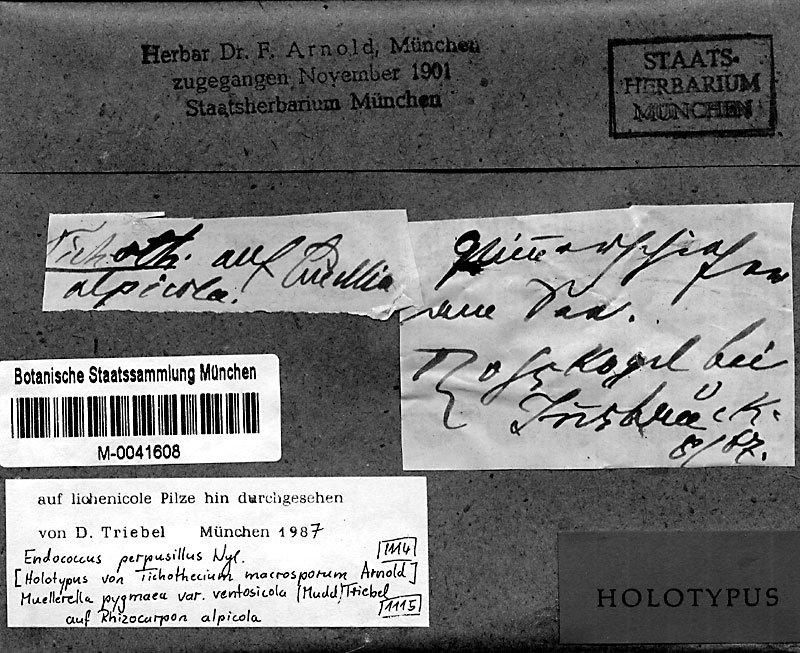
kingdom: Fungi
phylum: Ascomycota
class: Dothideomycetes
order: Dothideales
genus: Endococcus
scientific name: Endococcus macrosporus
